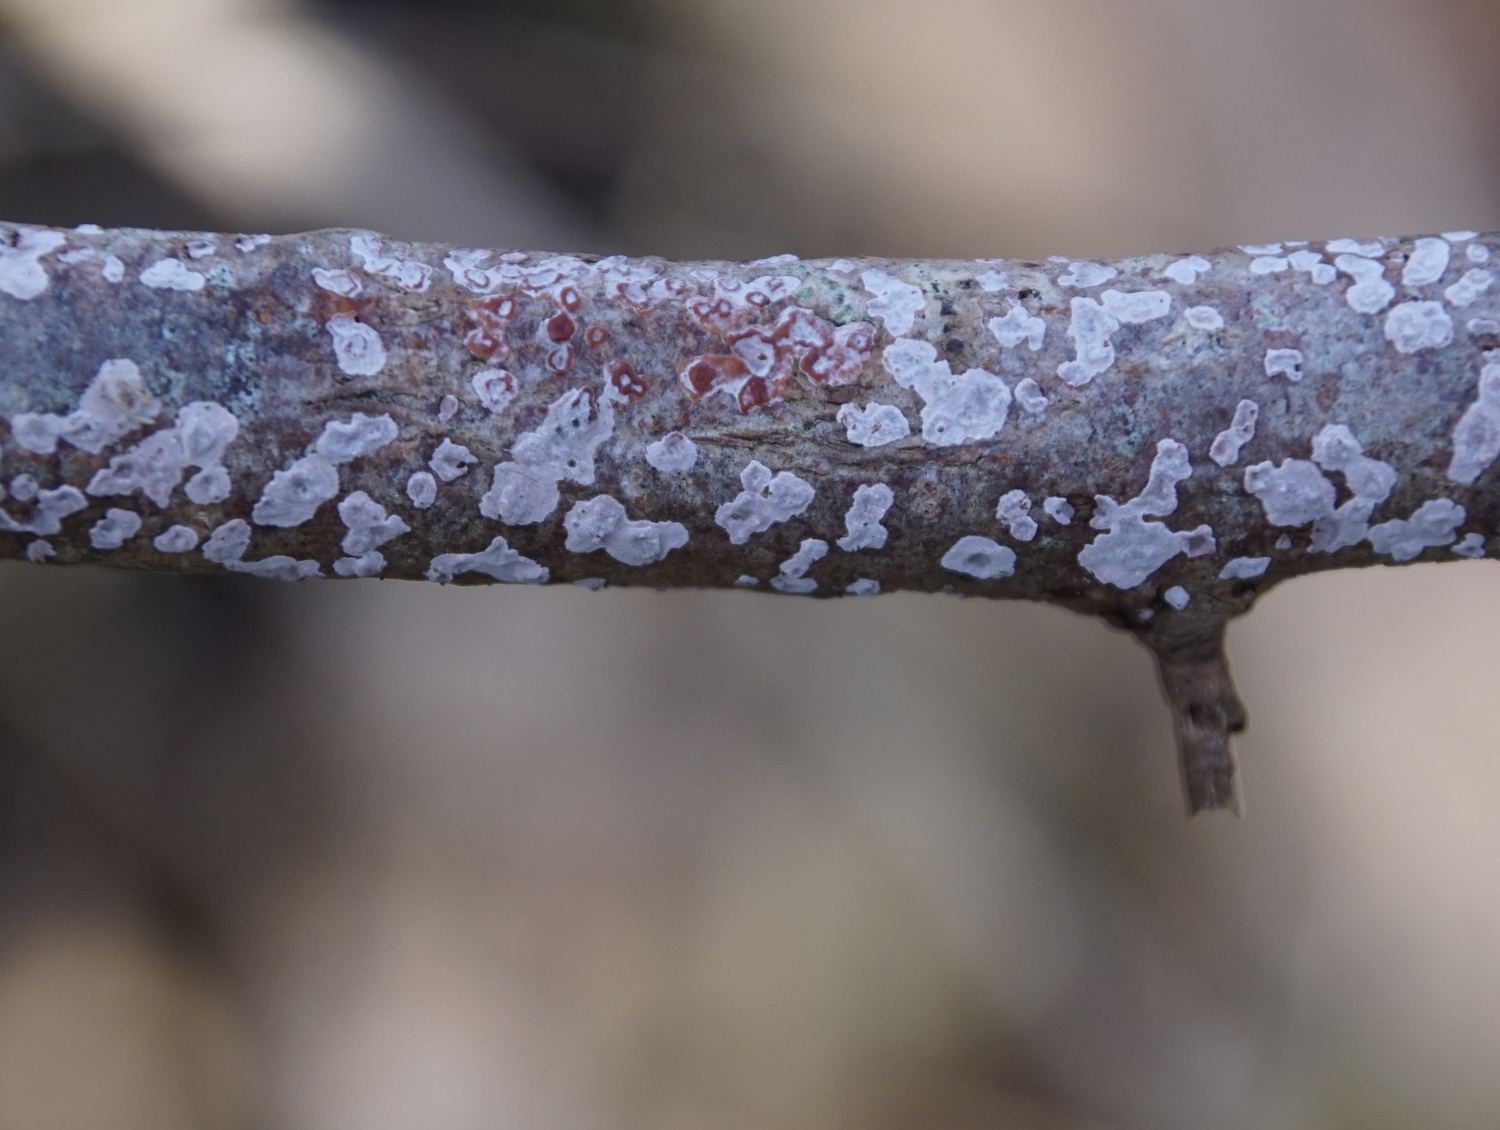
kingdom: Fungi
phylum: Basidiomycota
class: Agaricomycetes
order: Russulales
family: Peniophoraceae
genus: Peniophora
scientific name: Peniophora polygonia
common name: polygon-voksskind
